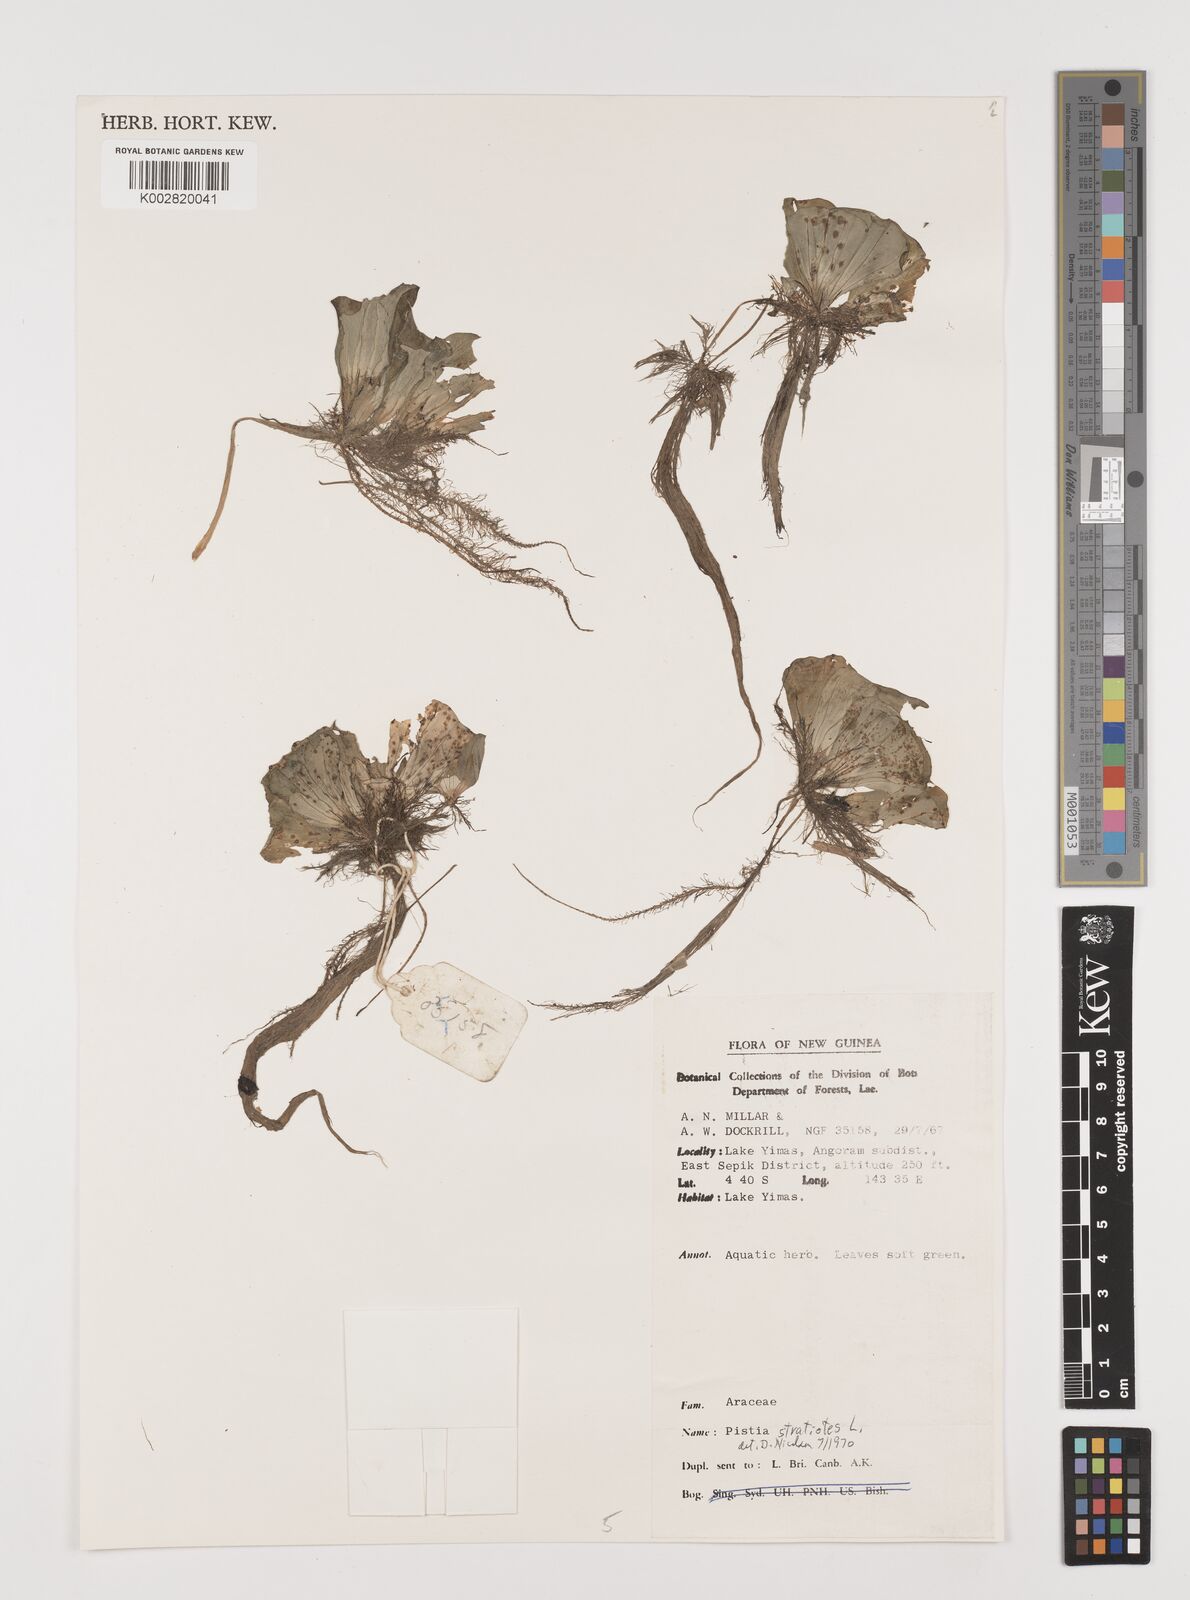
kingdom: Plantae
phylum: Tracheophyta
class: Liliopsida
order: Alismatales
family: Araceae
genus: Pistia
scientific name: Pistia stratiotes
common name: Water lettuce
